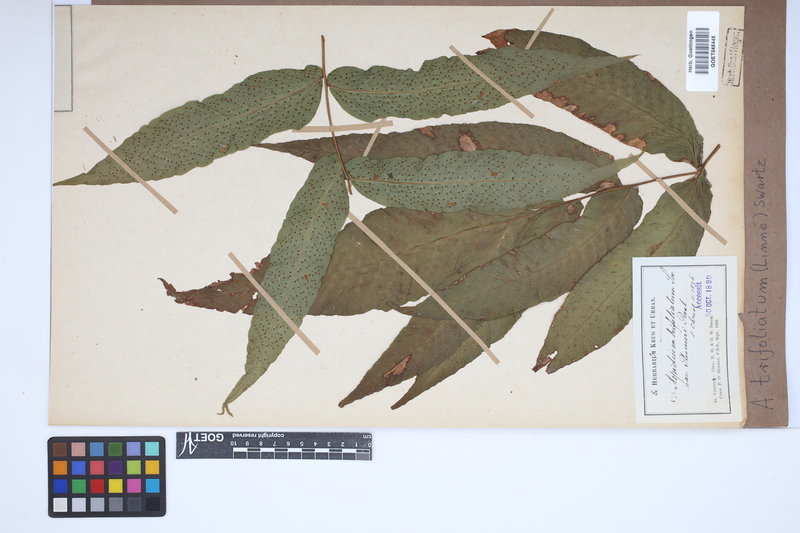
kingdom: Plantae
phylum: Tracheophyta
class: Polypodiopsida
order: Polypodiales
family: Tectariaceae
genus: Tectaria
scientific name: Tectaria trifoliata
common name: Threeleaf halberd fern
